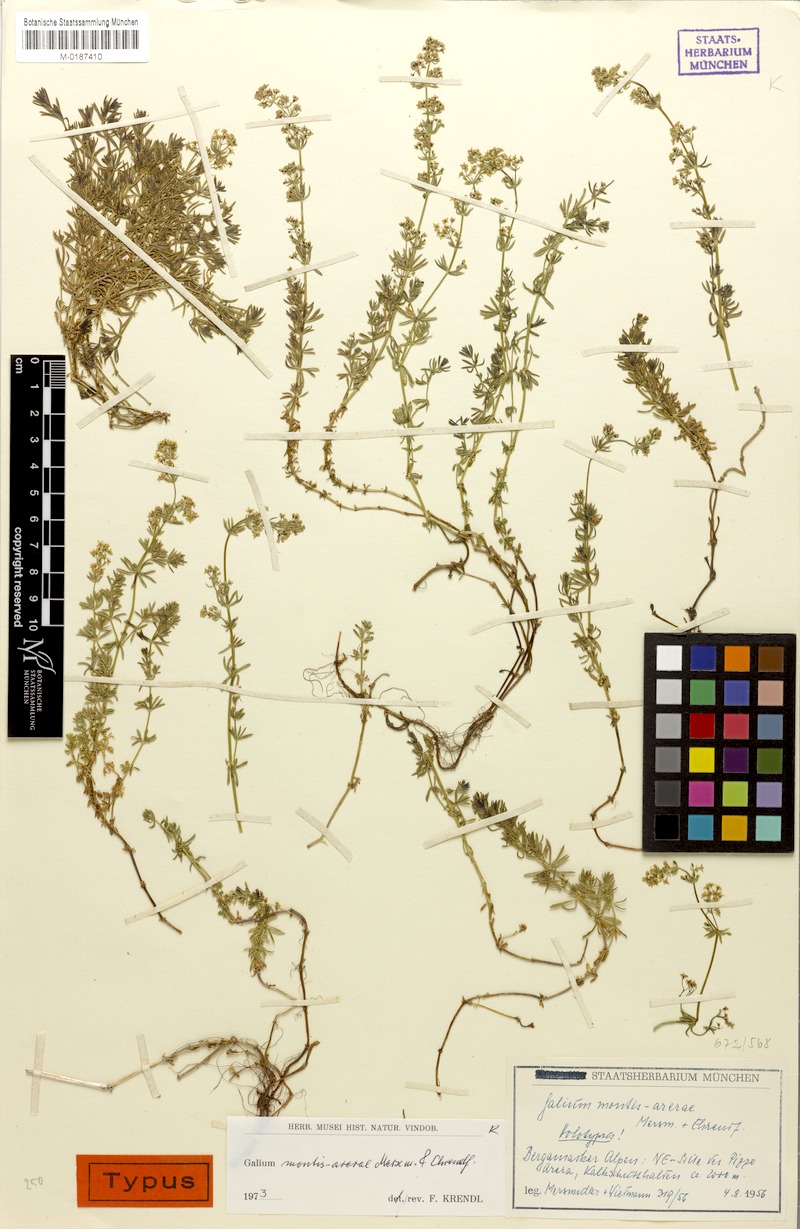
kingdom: Plantae
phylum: Tracheophyta
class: Magnoliopsida
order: Gentianales
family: Rubiaceae
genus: Galium
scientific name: Galium montis-arerae
